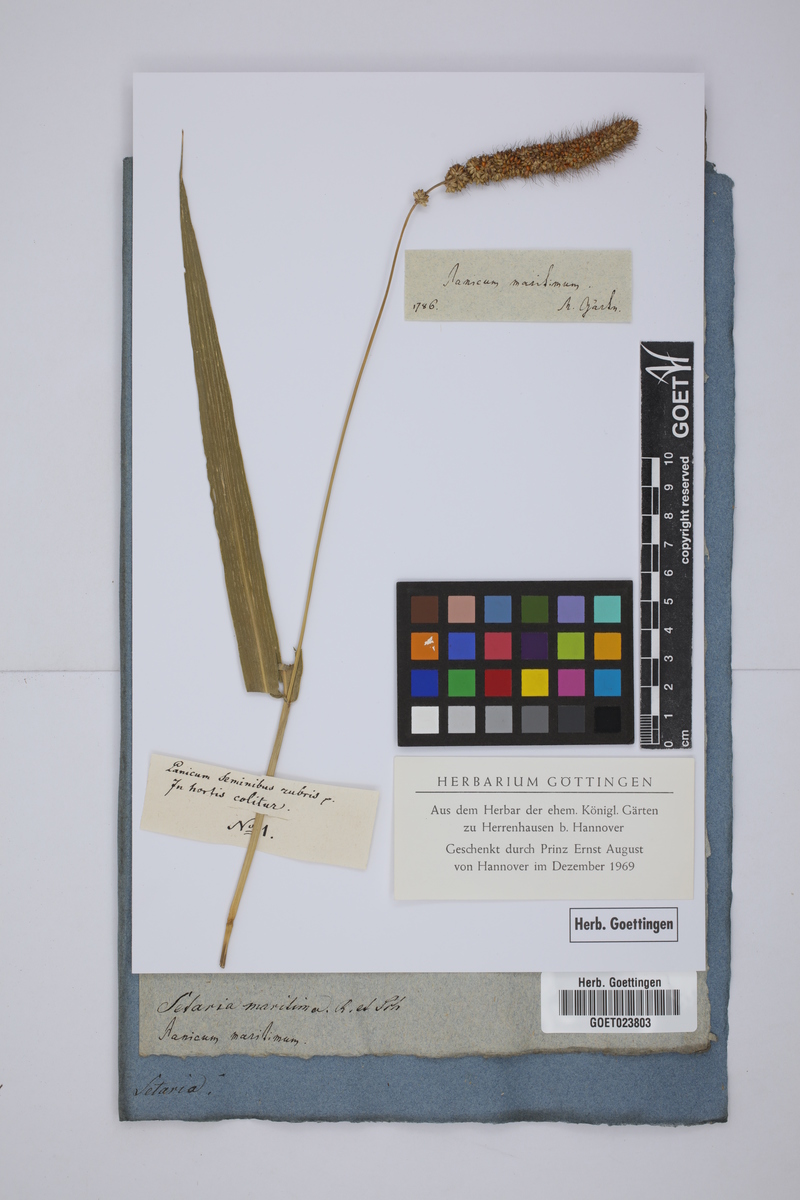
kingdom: Plantae
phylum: Tracheophyta
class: Liliopsida
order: Poales
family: Poaceae
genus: Setaria
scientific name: Setaria italica
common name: Foxtail bristle-grass
